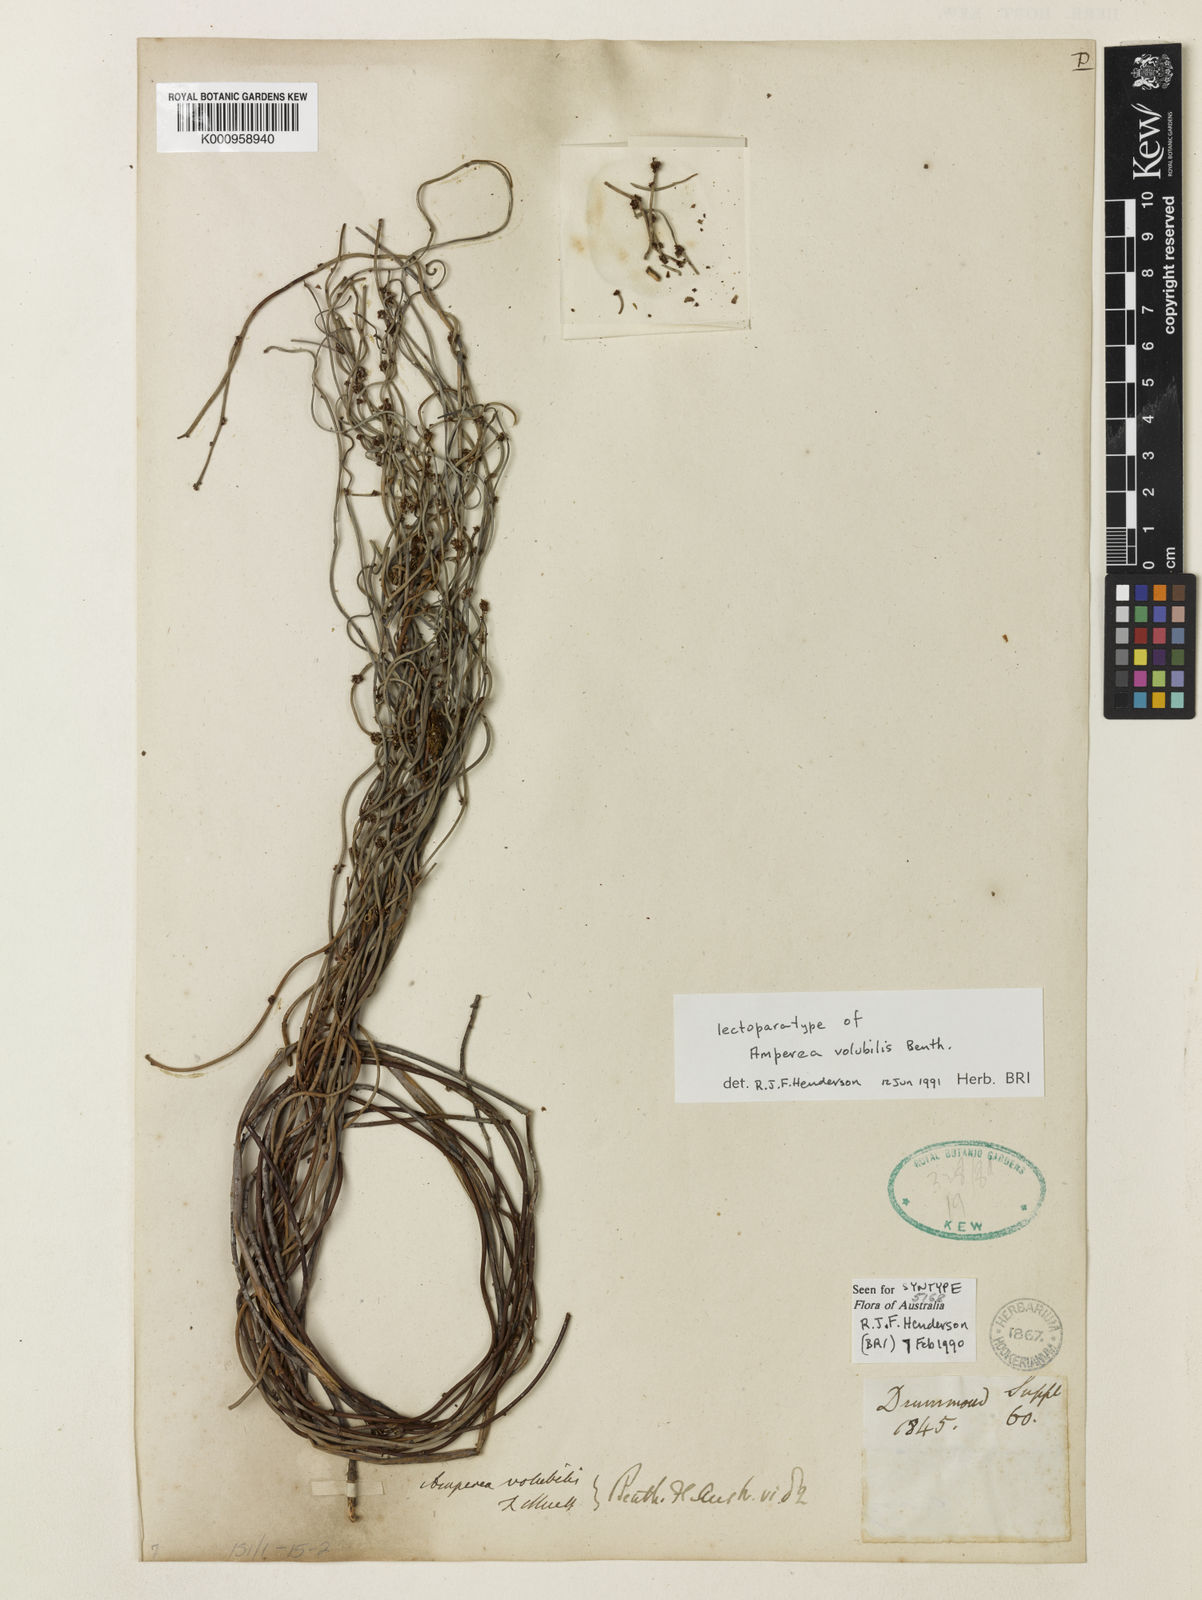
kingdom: Plantae
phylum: Tracheophyta
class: Magnoliopsida
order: Malpighiales
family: Euphorbiaceae
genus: Amperea
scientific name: Amperea volubilis
